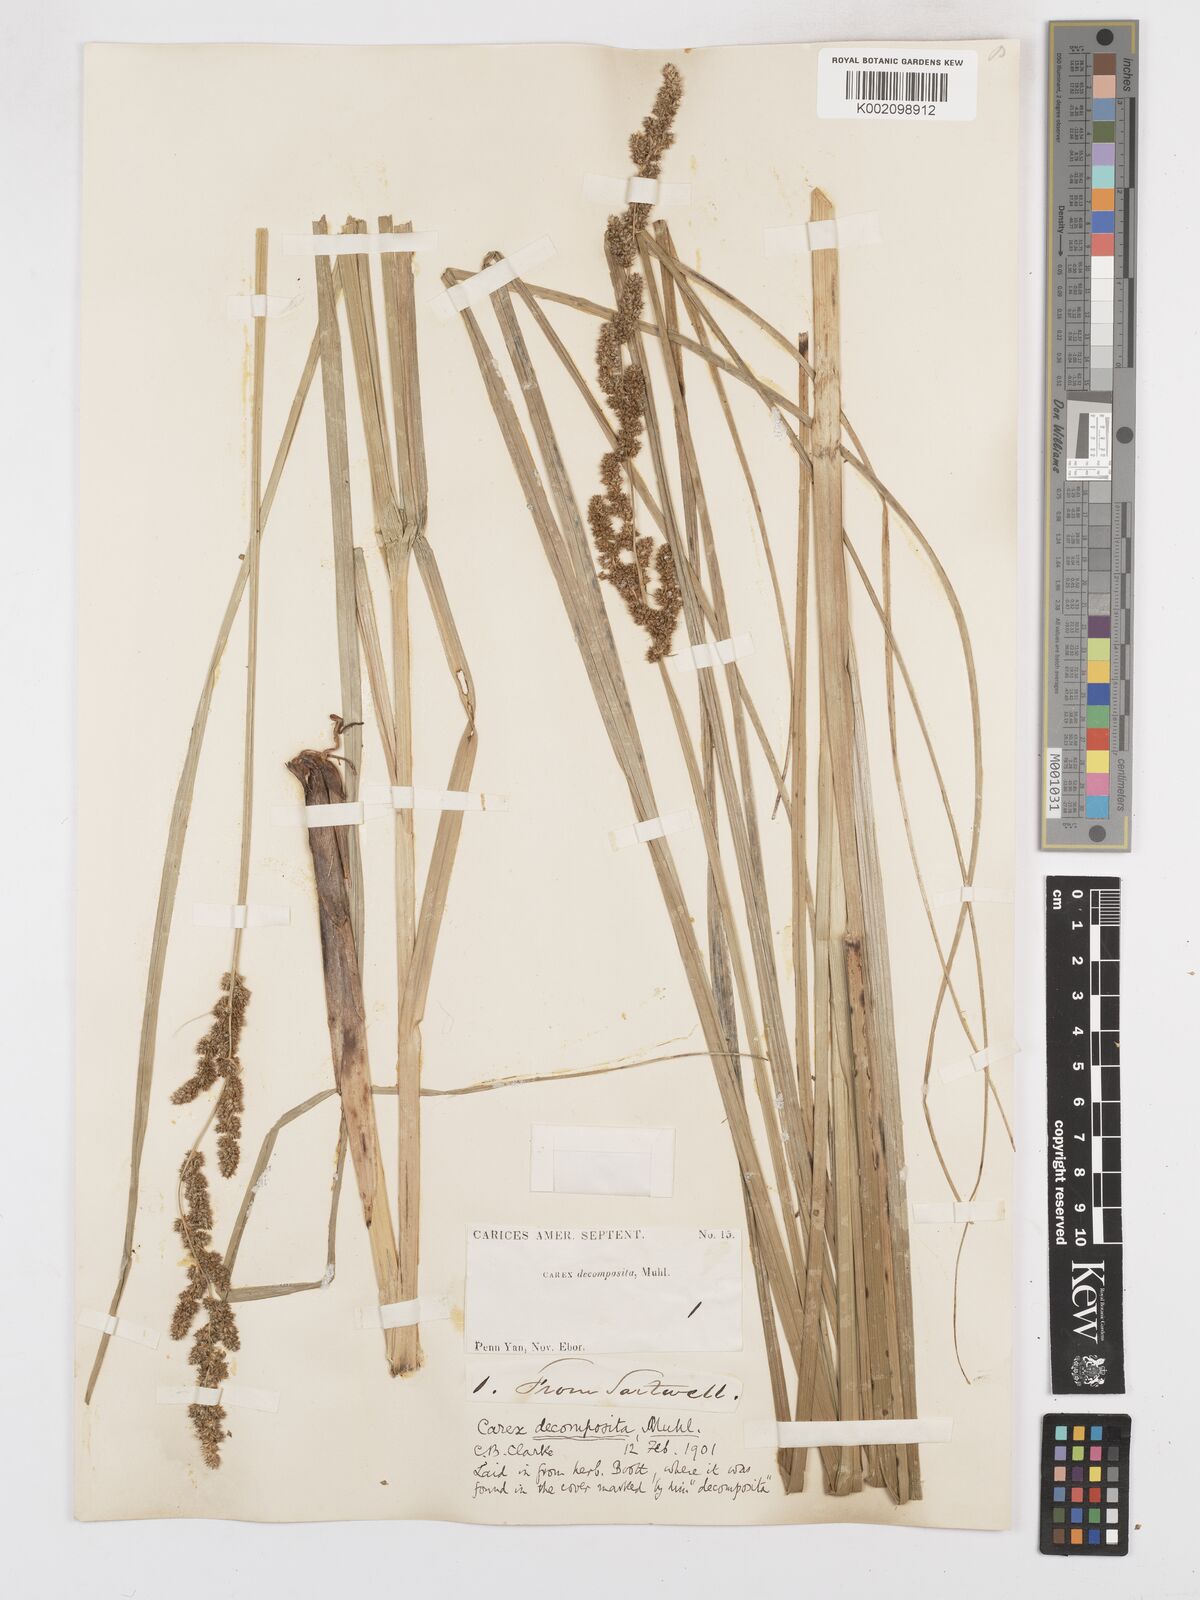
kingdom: Plantae
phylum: Tracheophyta
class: Liliopsida
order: Poales
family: Cyperaceae
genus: Carex
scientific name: Carex decomposita
